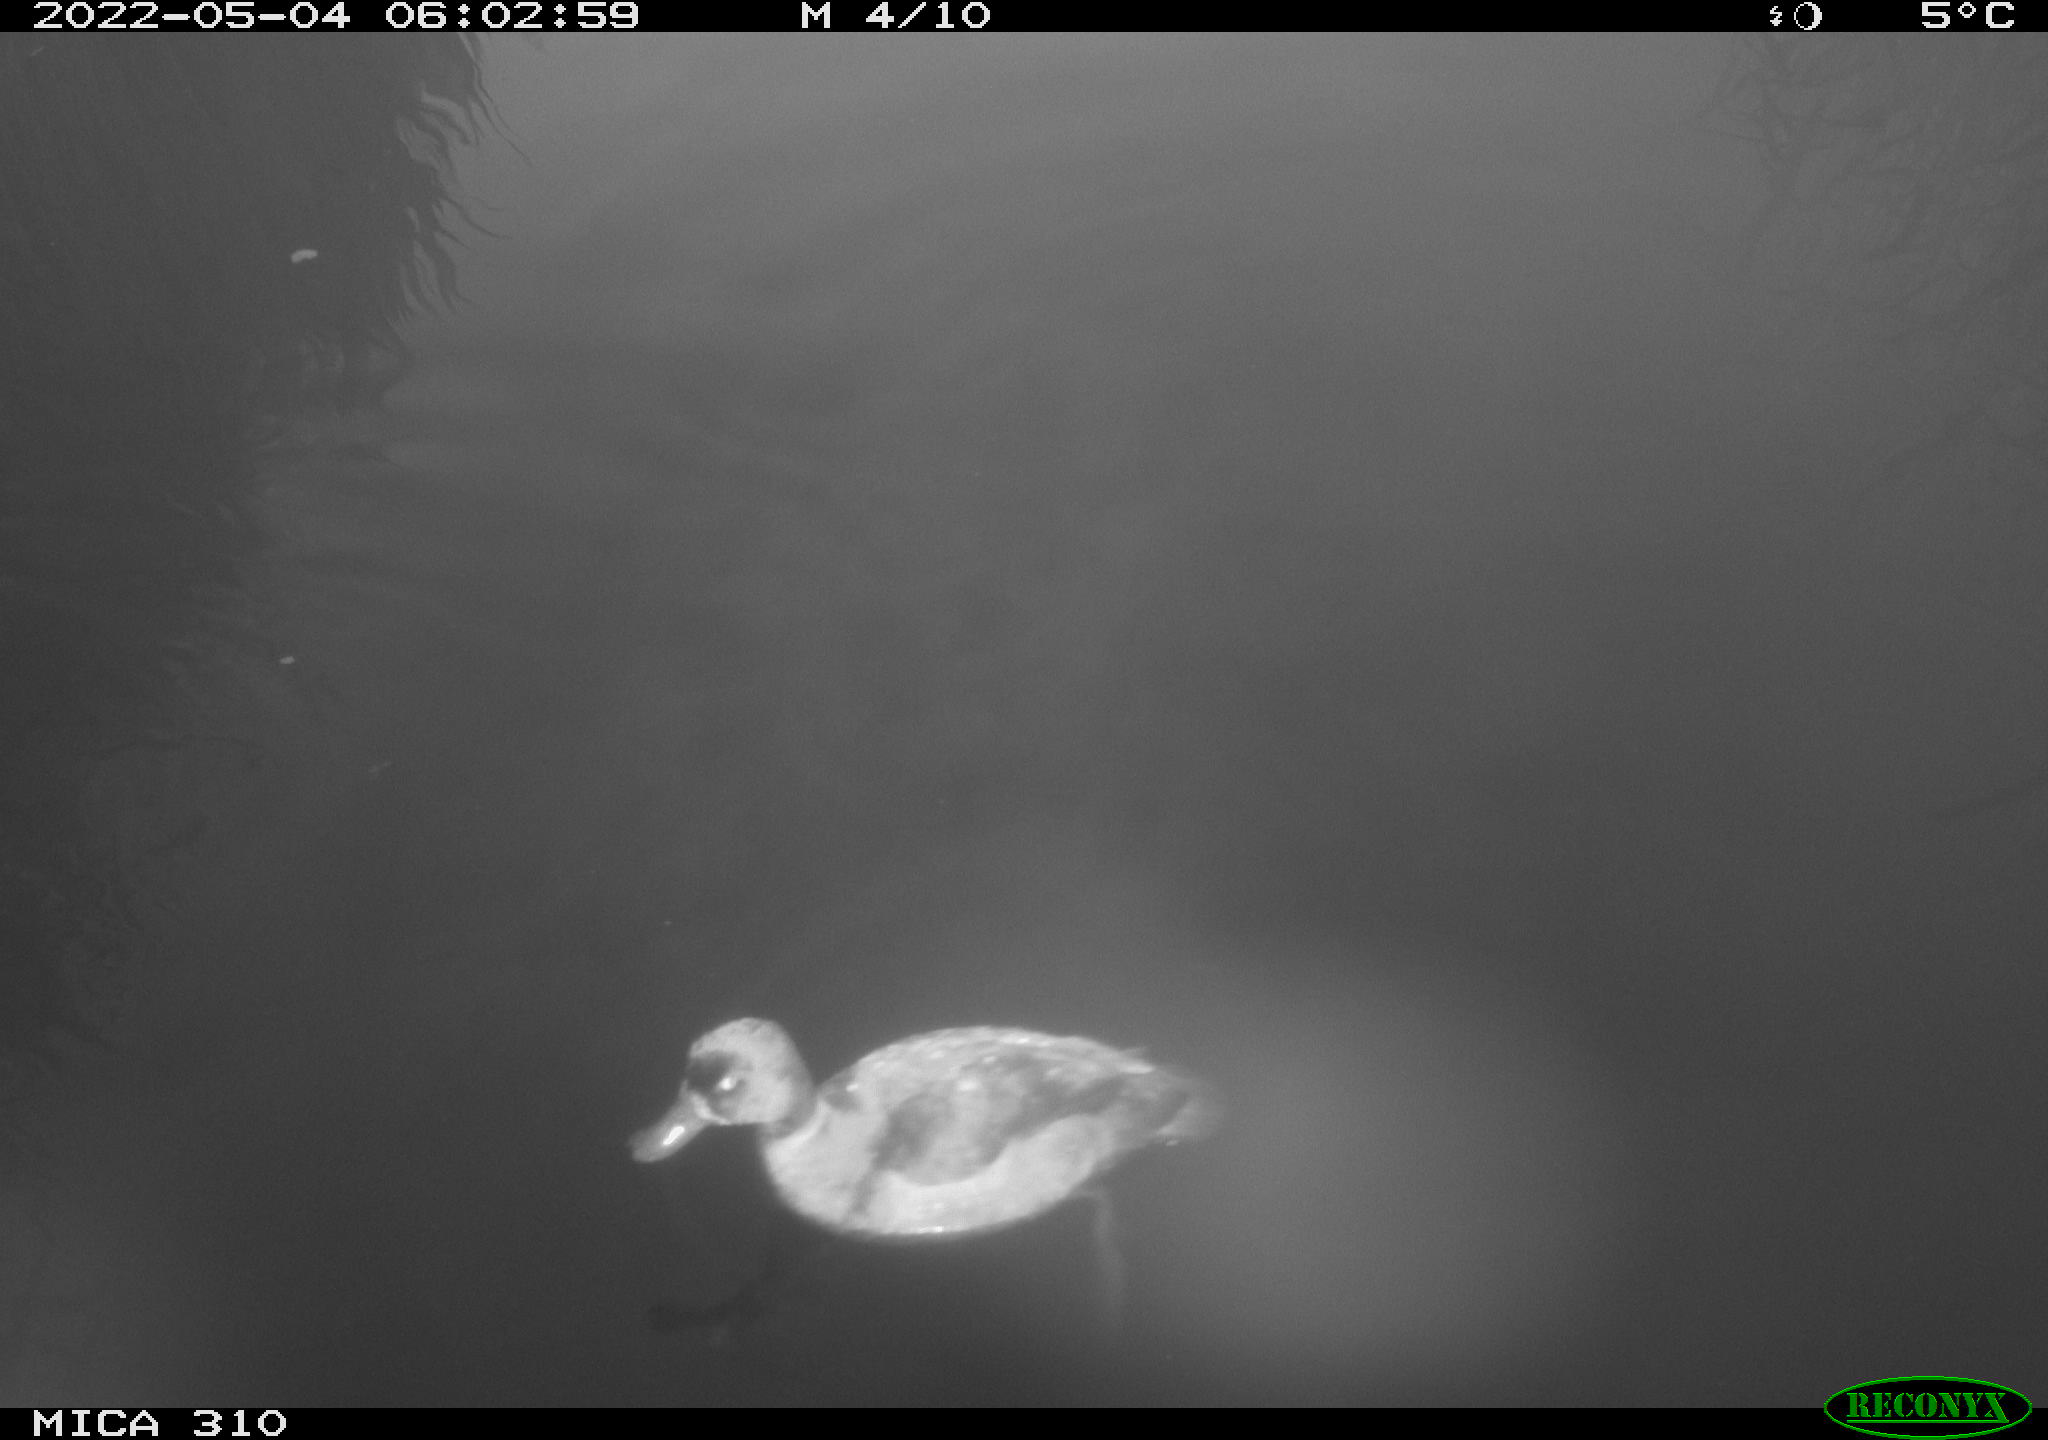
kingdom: Animalia
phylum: Chordata
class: Aves
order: Anseriformes
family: Anatidae
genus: Anas
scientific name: Anas platyrhynchos
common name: Mallard
